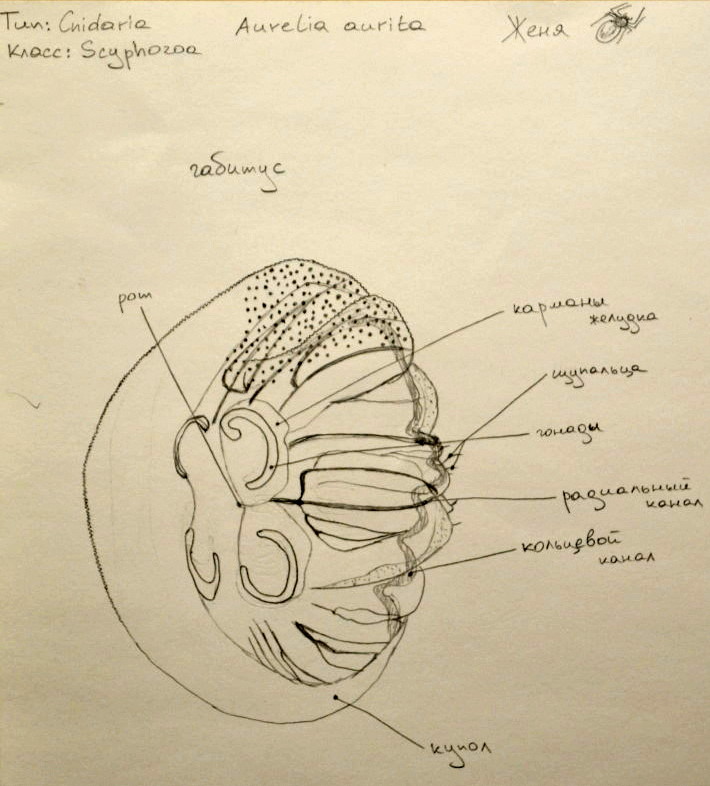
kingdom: Animalia
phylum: Cnidaria
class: Scyphozoa
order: Semaeostomeae
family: Ulmaridae
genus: Aurelia
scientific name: Aurelia aurita
